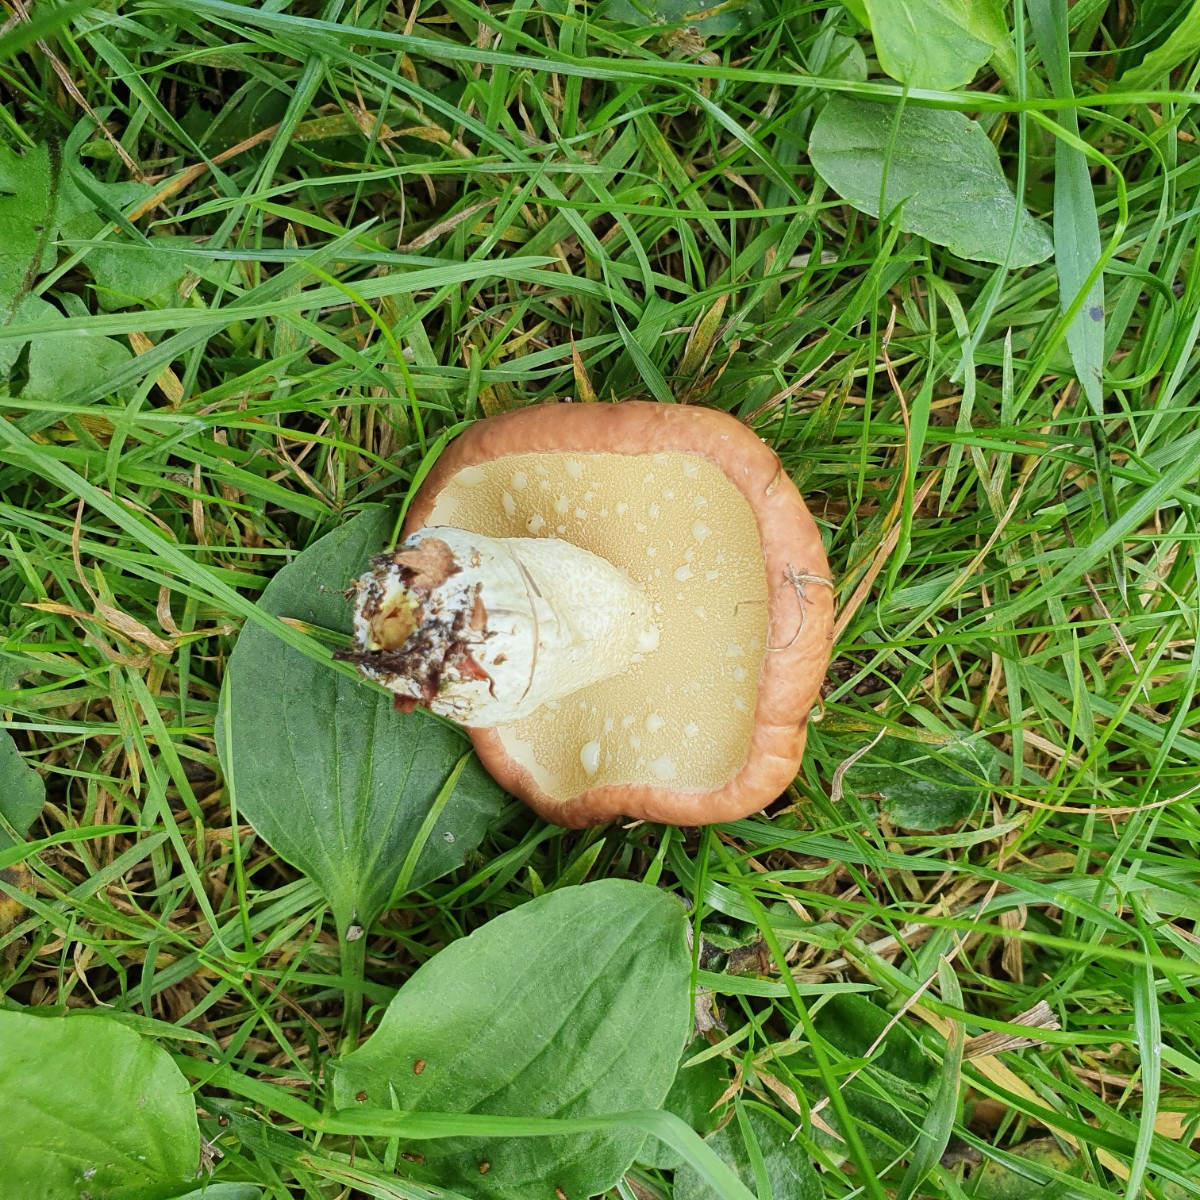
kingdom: Fungi
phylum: Basidiomycota
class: Agaricomycetes
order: Boletales
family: Suillaceae
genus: Suillus
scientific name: Suillus granulatus
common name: kornet slimrørhat
